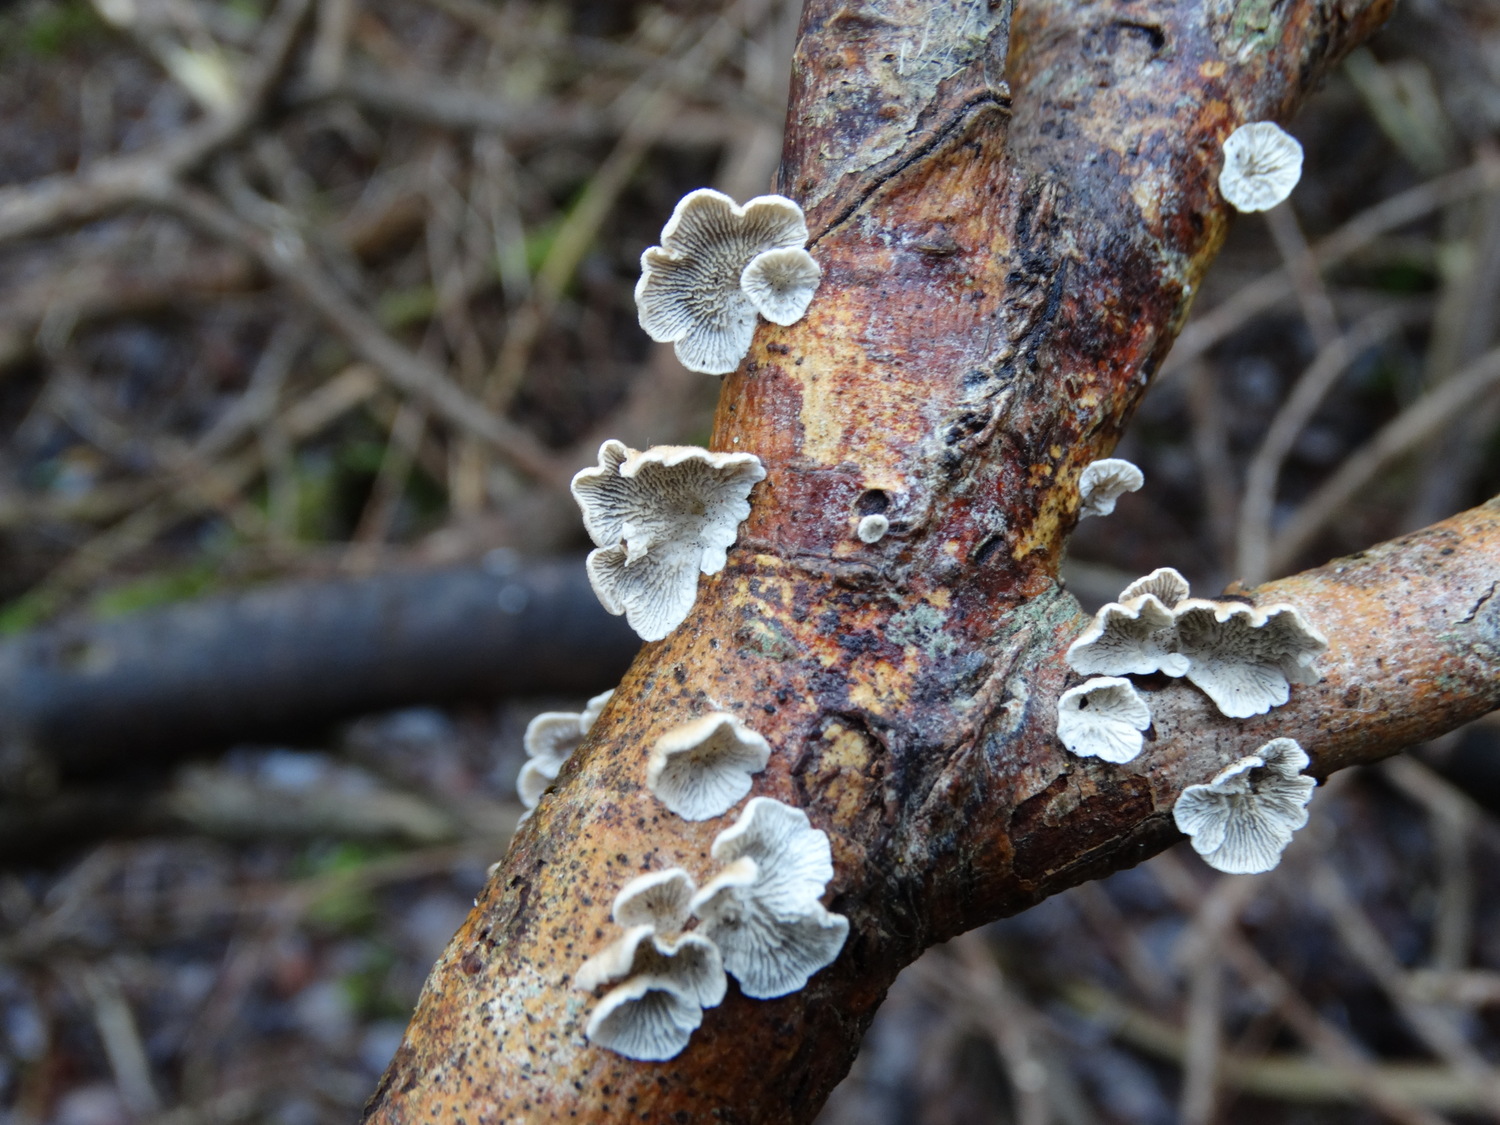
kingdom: Fungi
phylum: Basidiomycota
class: Agaricomycetes
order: Amylocorticiales
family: Amylocorticiaceae
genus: Plicaturopsis
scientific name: Plicaturopsis crispa
